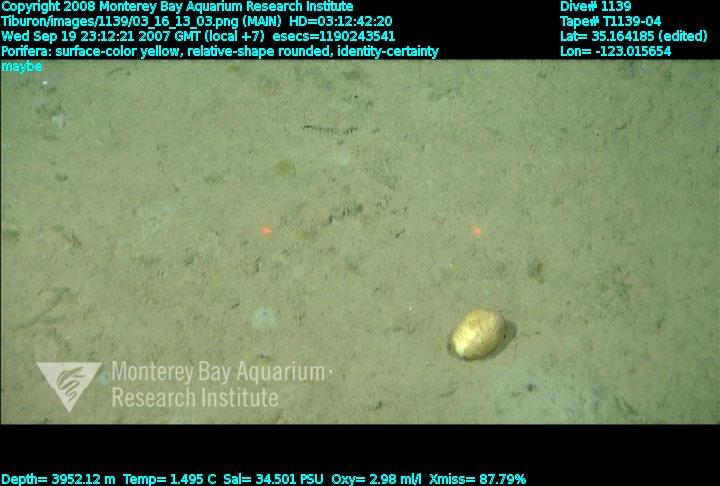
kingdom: Animalia
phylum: Porifera
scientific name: Porifera
